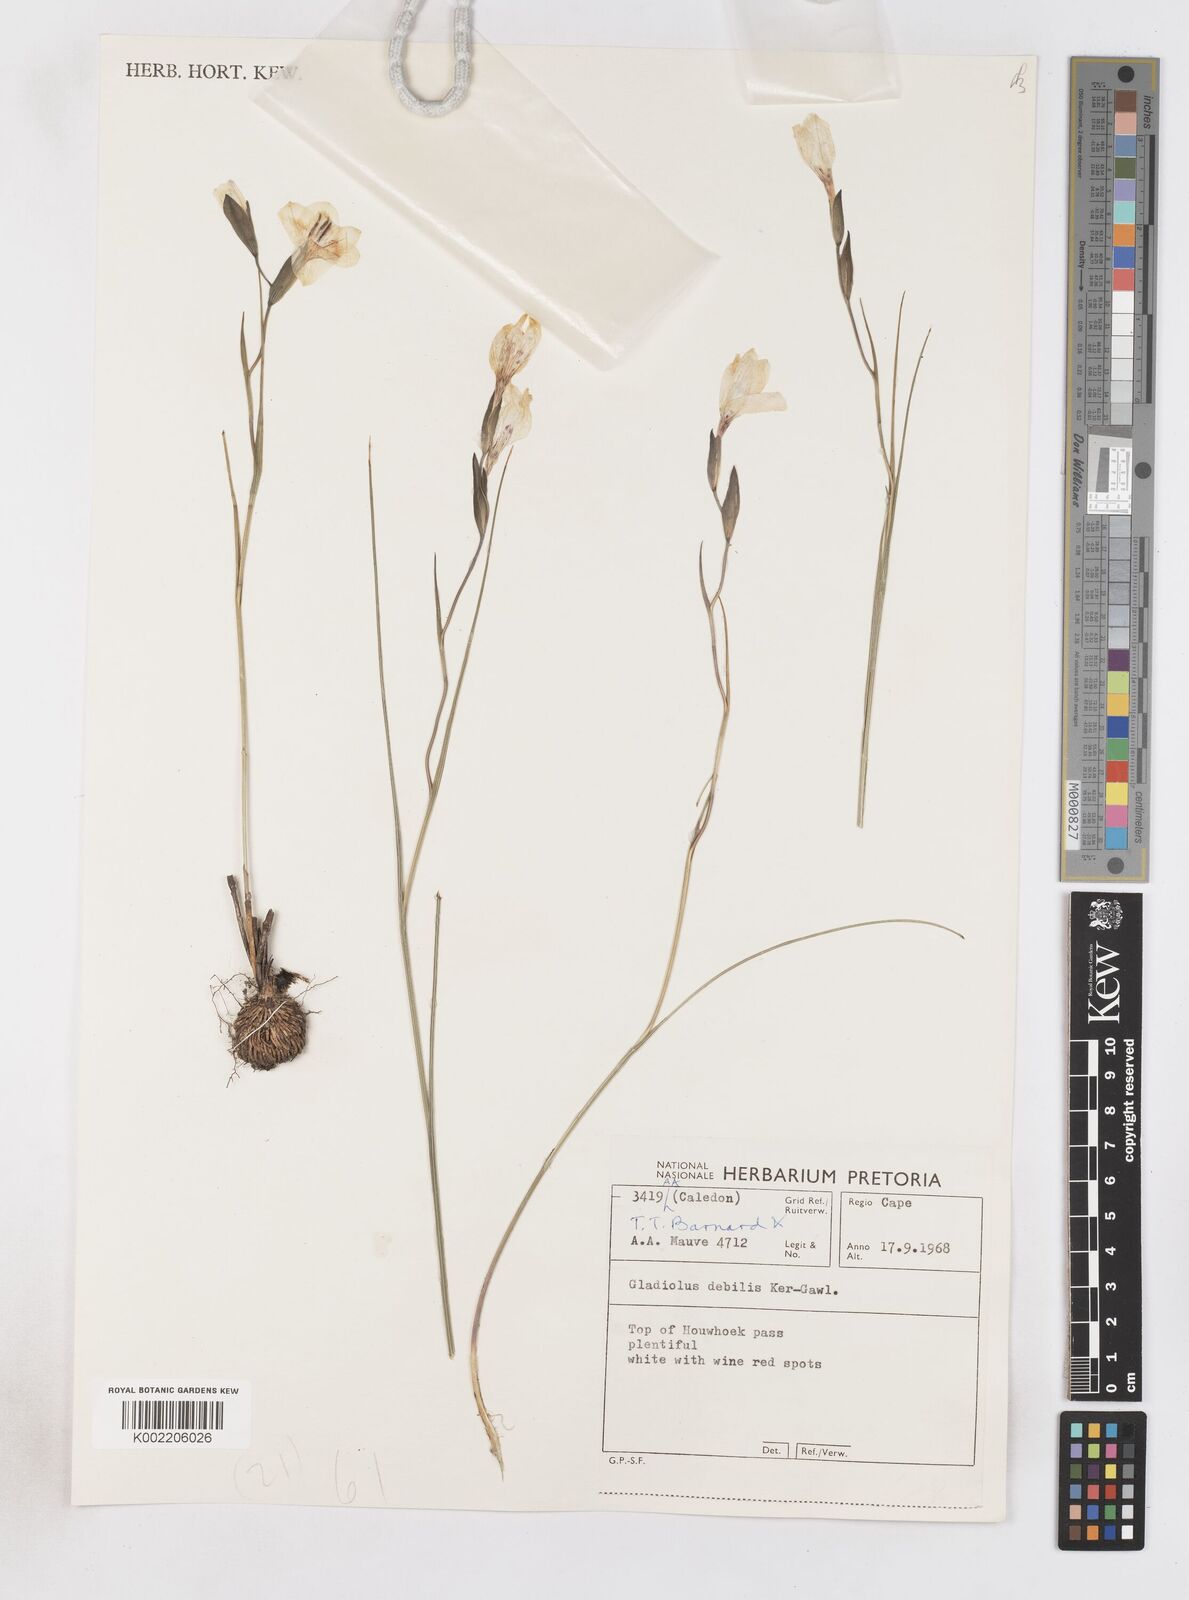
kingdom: Plantae
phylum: Tracheophyta
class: Liliopsida
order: Asparagales
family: Iridaceae
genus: Gladiolus
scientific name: Gladiolus debilis
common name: Painted-lady
